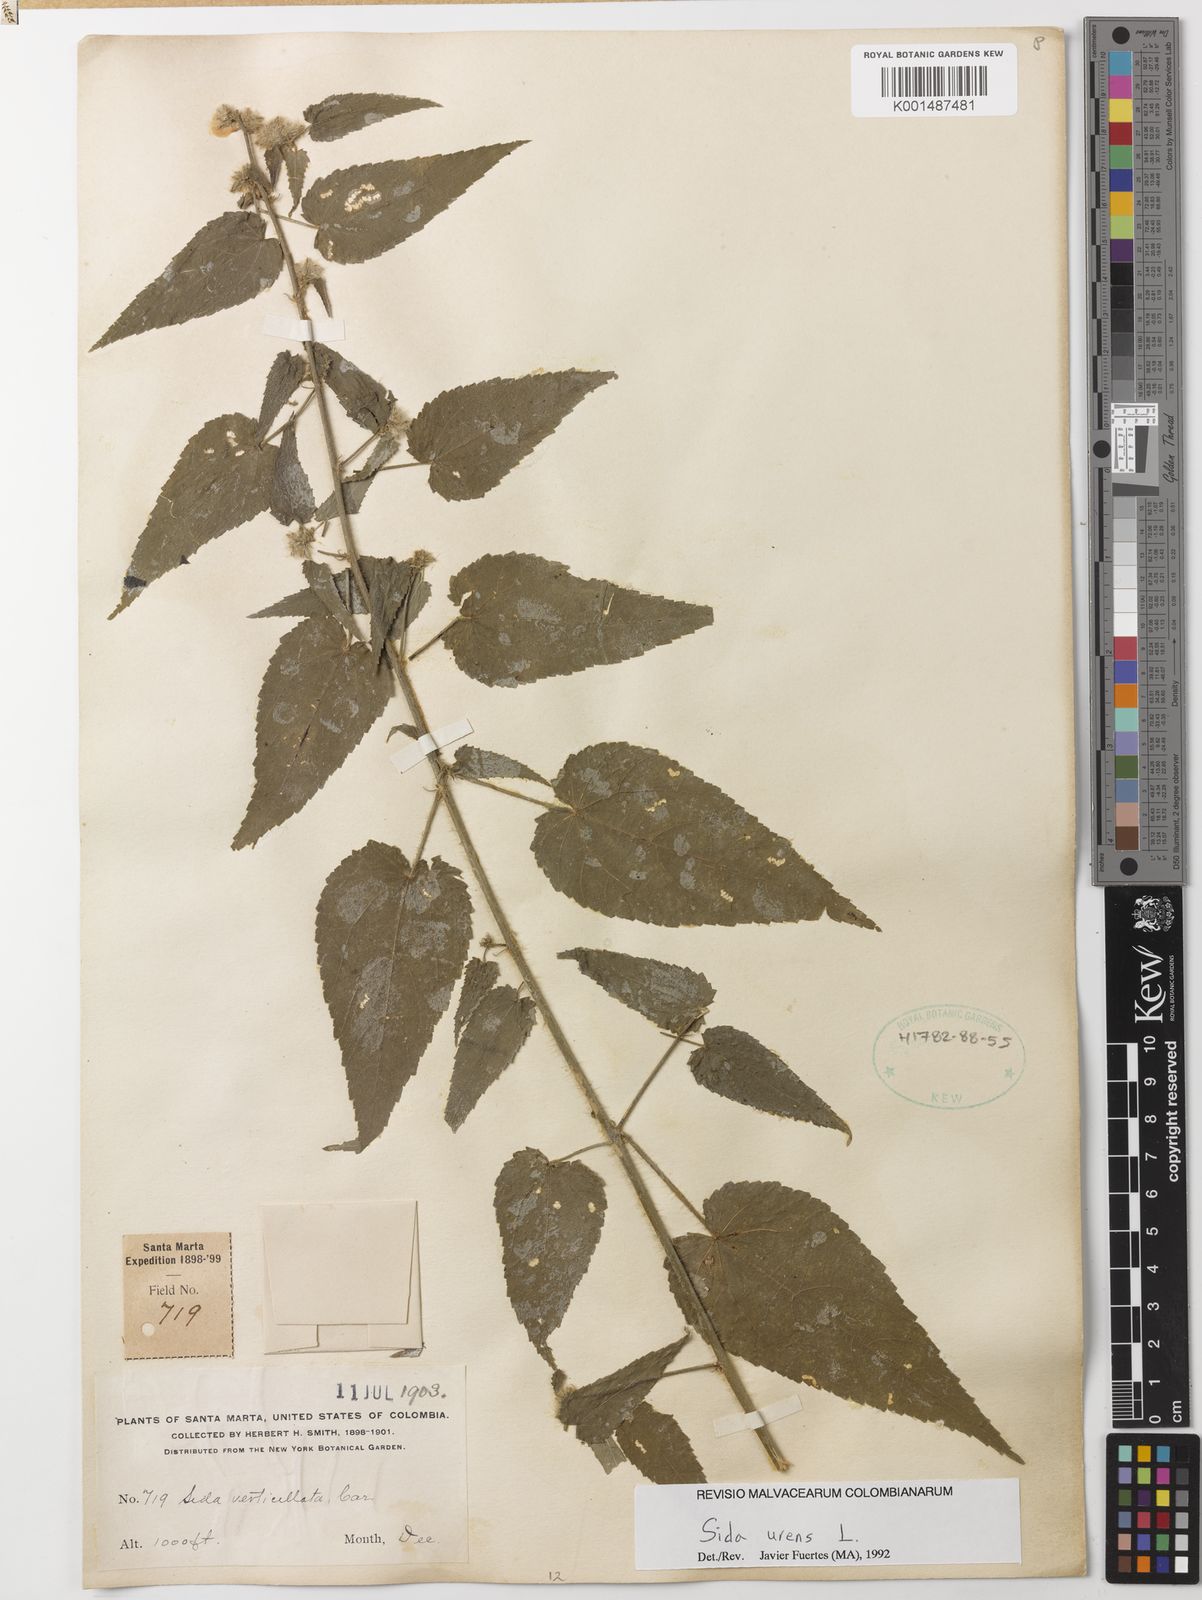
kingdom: Plantae
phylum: Tracheophyta
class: Magnoliopsida
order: Malvales
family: Malvaceae
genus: Sida
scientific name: Sida urens
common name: Tropical fanpetals
